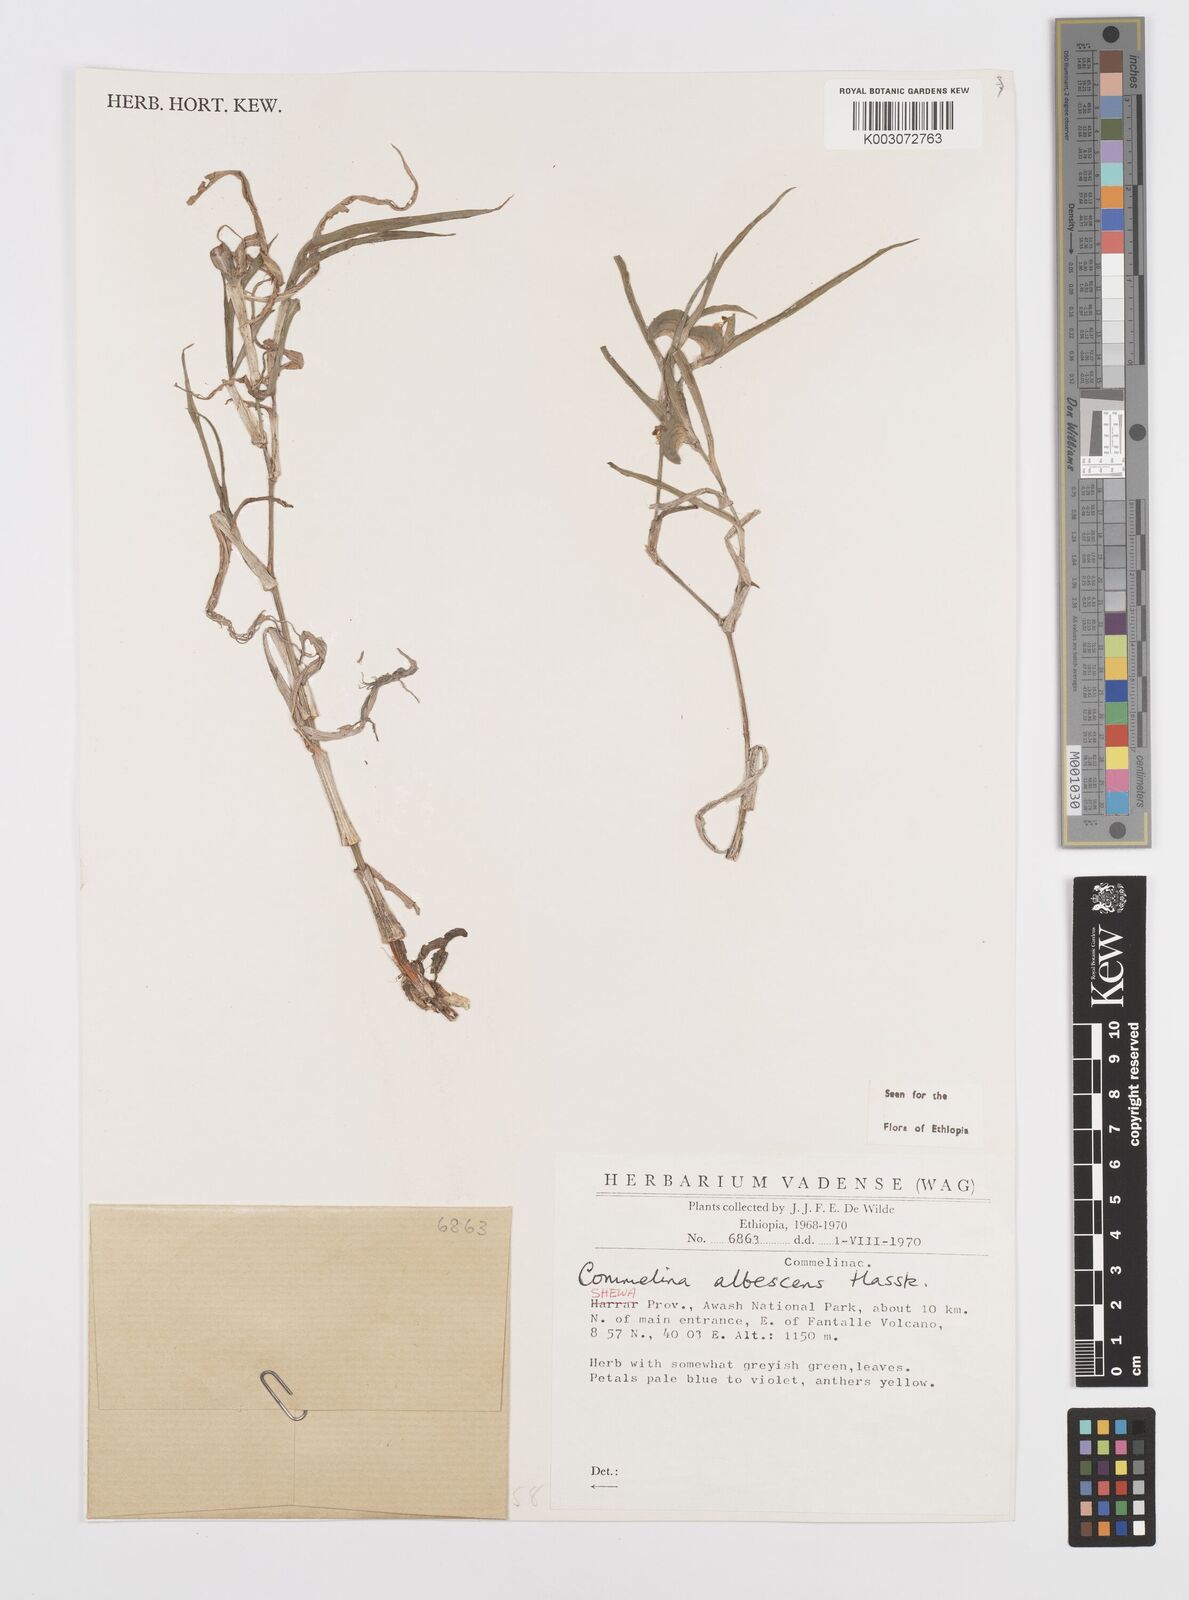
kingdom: Plantae
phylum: Tracheophyta
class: Liliopsida
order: Commelinales
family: Commelinaceae
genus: Commelina
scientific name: Commelina albescens
